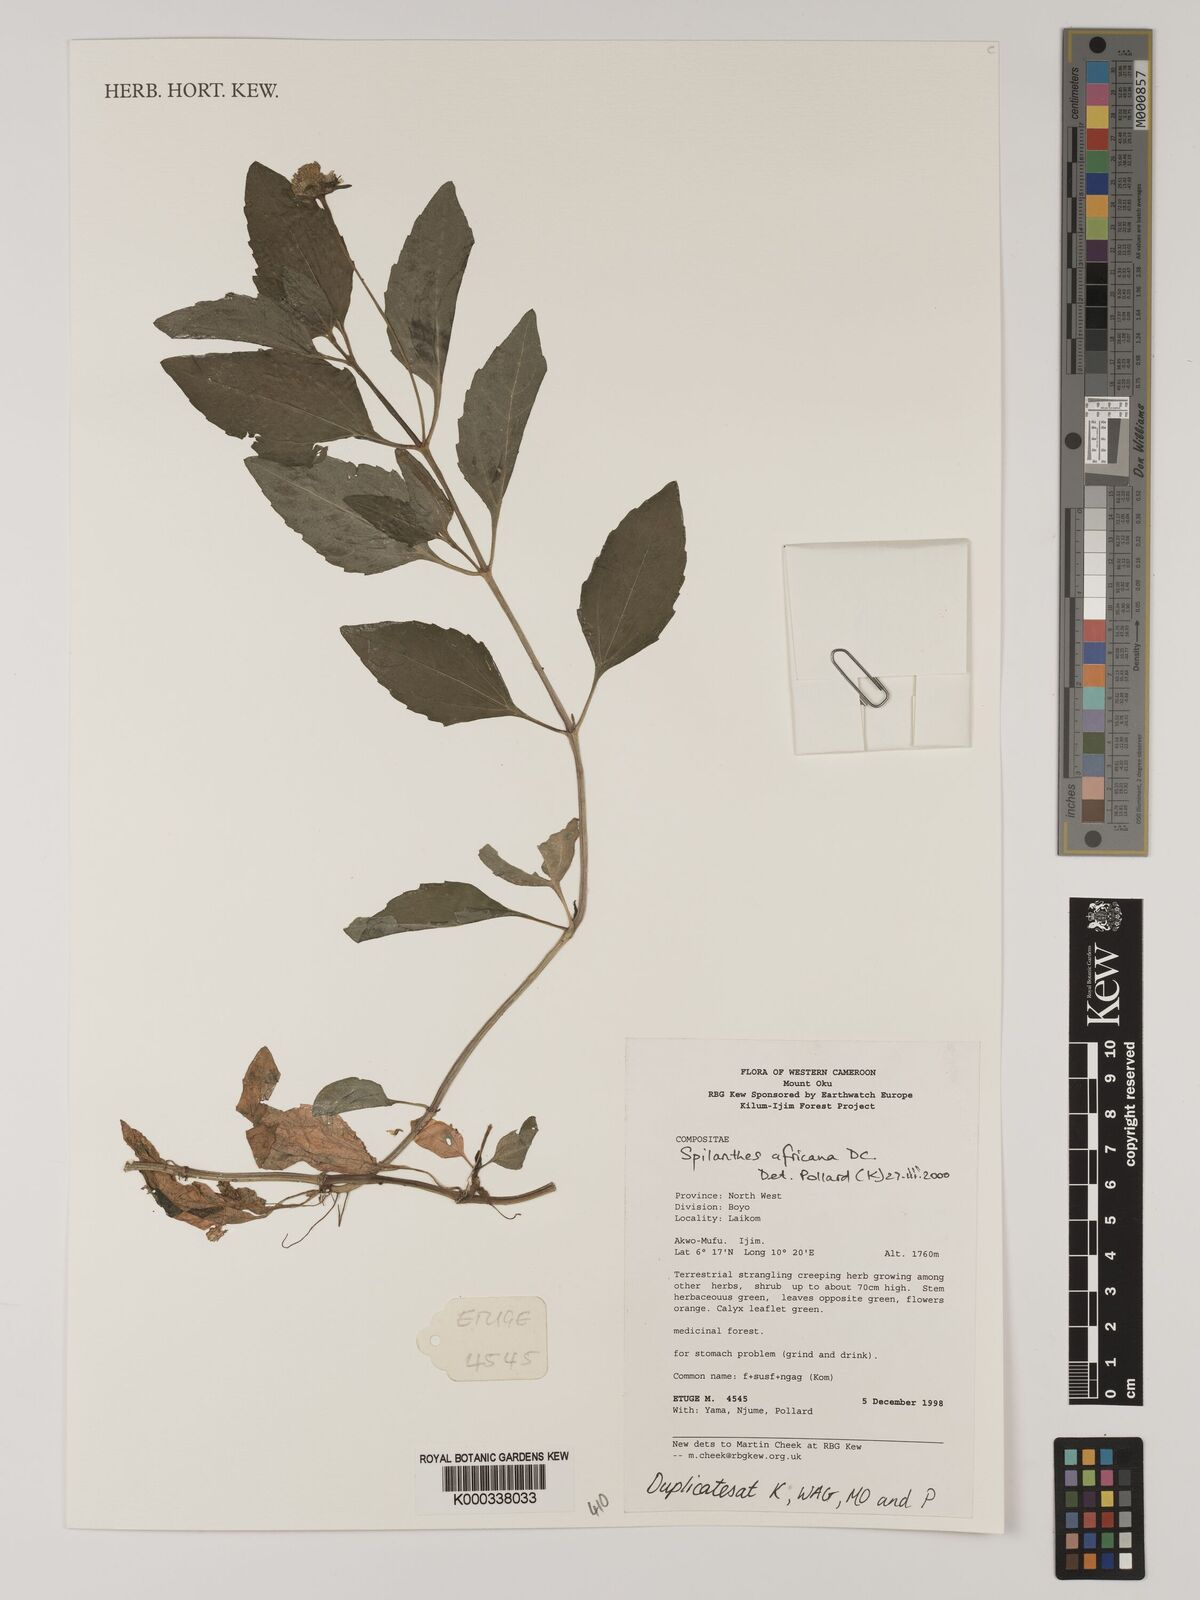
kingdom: Plantae
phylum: Tracheophyta
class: Magnoliopsida
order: Asterales
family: Asteraceae
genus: Acmella
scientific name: Acmella caulirhiza
